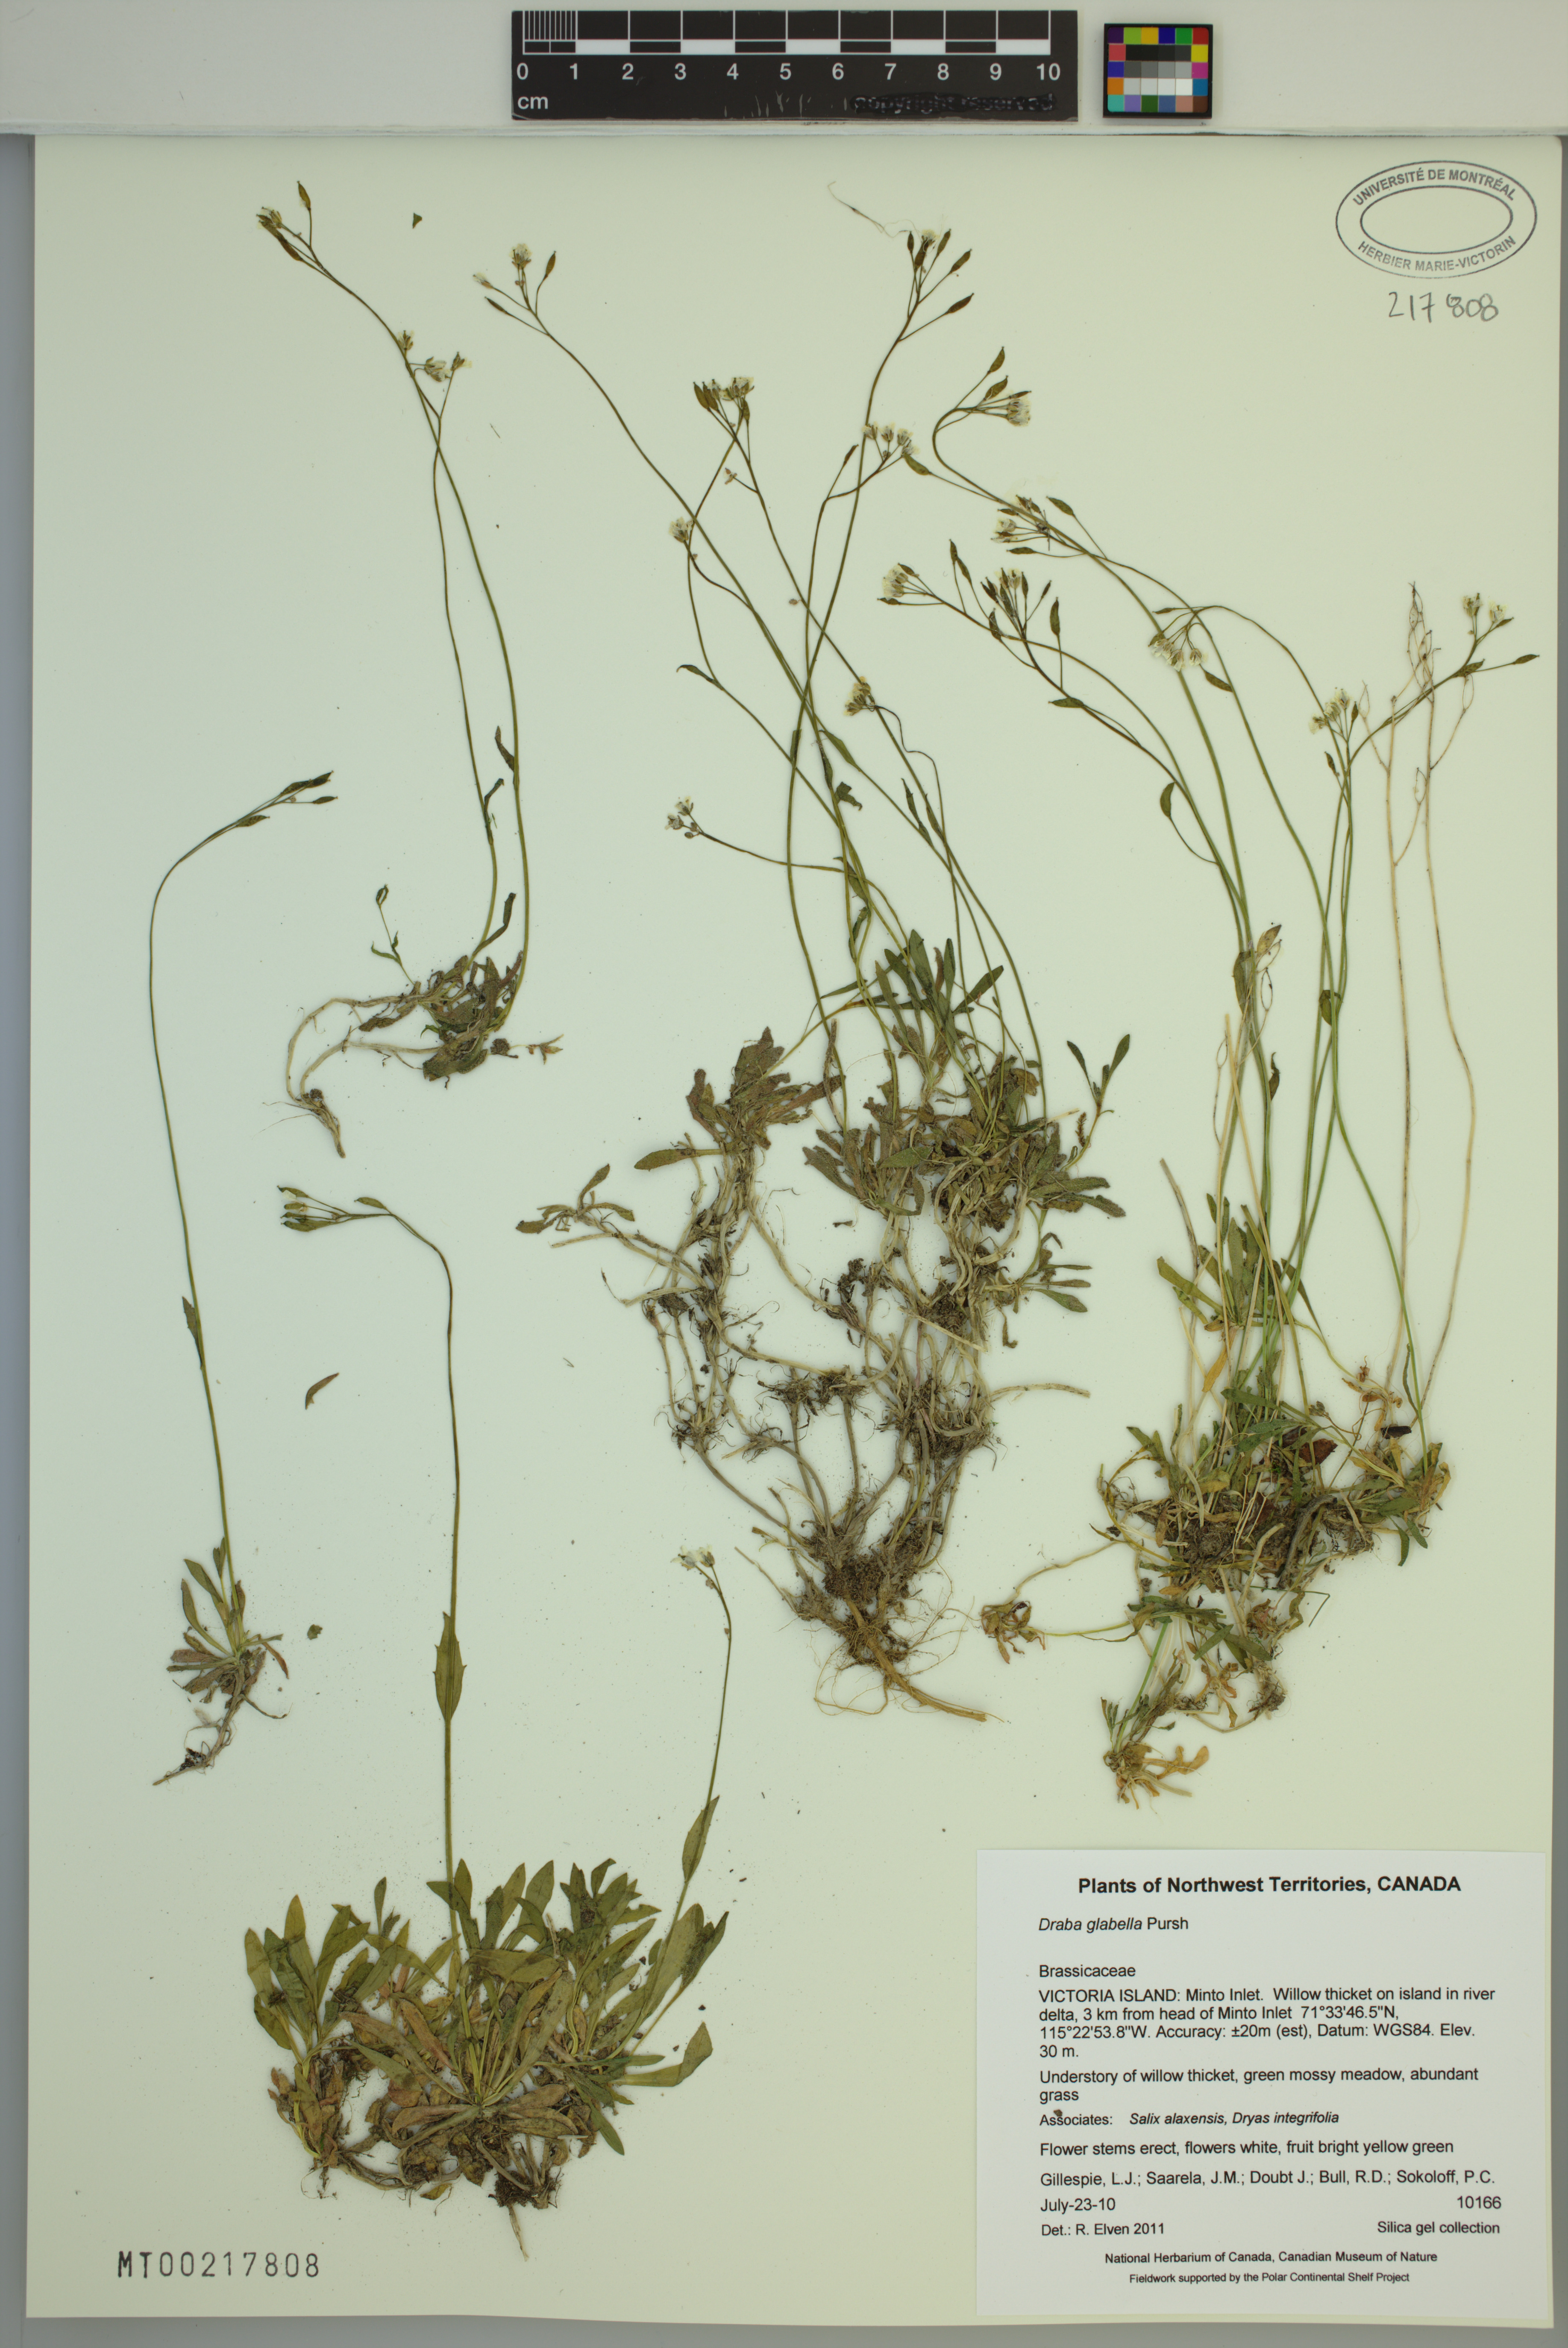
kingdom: Plantae
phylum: Tracheophyta
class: Magnoliopsida
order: Brassicales
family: Brassicaceae
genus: Draba
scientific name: Draba glabella
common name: Glaucous draba
